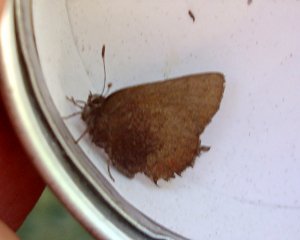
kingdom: Animalia
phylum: Arthropoda
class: Insecta
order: Lepidoptera
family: Lycaenidae
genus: Incisalia
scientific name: Incisalia irioides
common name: Brown Elfin
